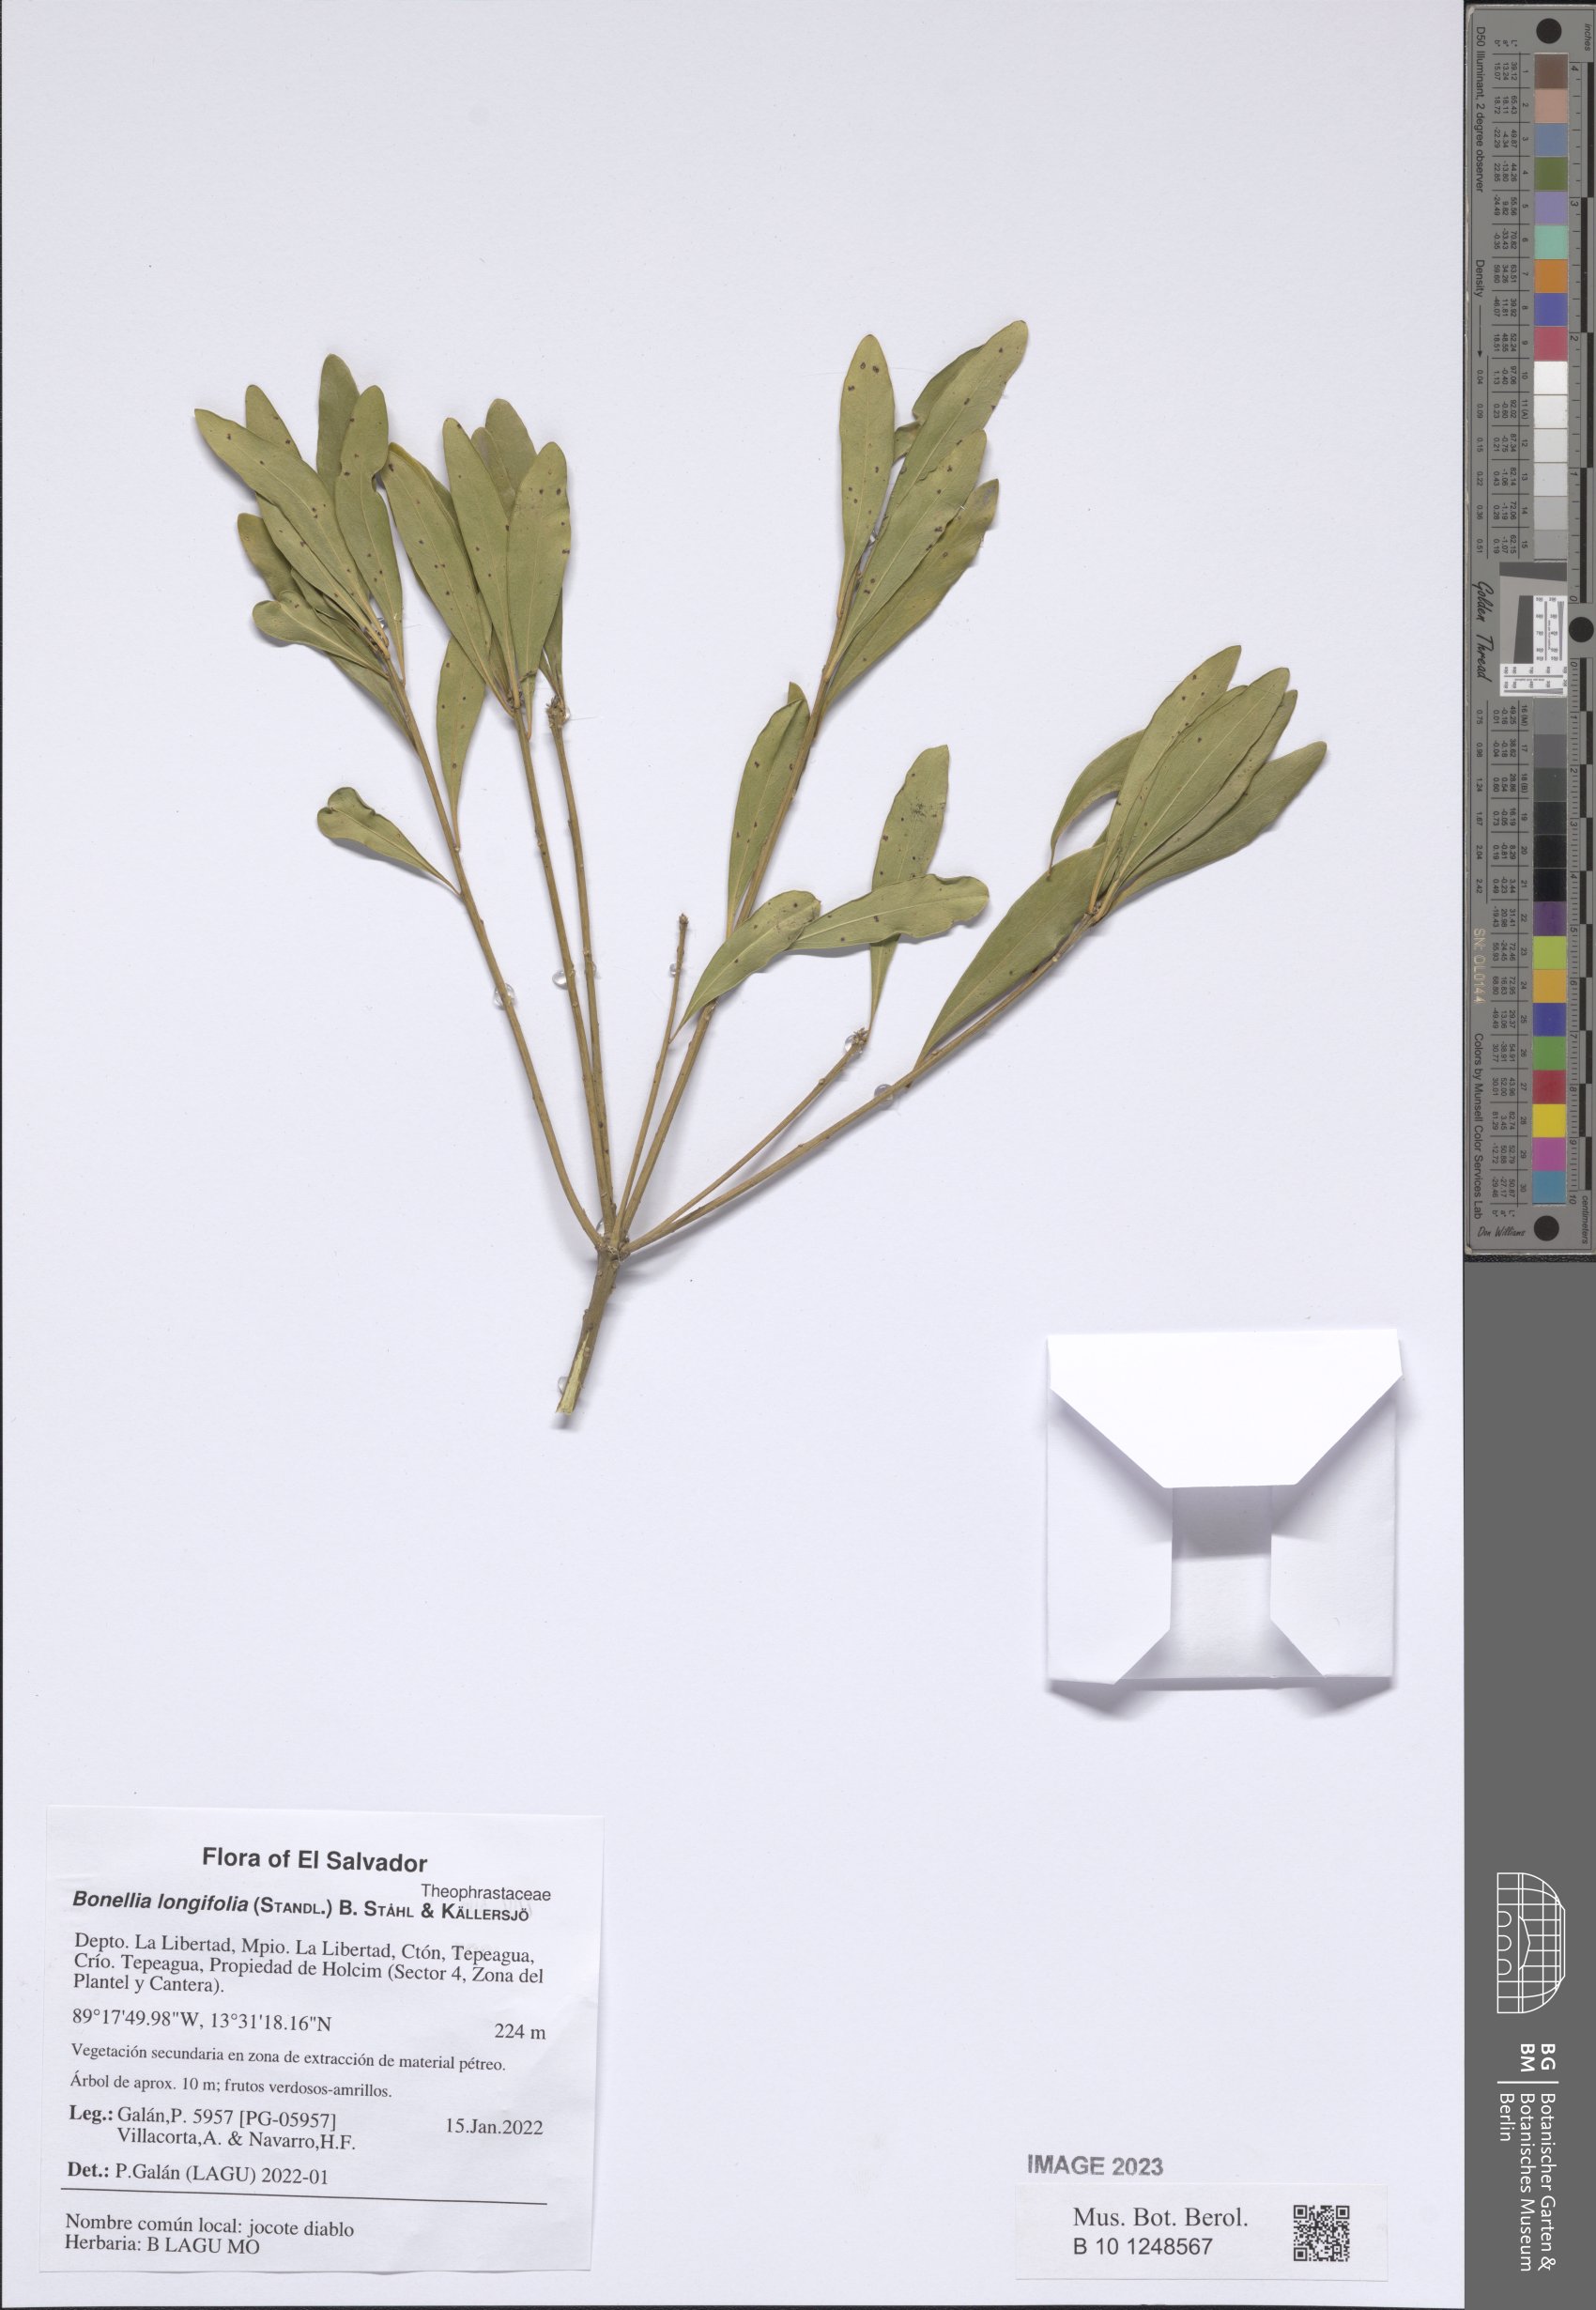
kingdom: Plantae
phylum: Tracheophyta
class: Magnoliopsida
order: Ericales
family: Primulaceae
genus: Bonellia
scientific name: Bonellia longifolia
